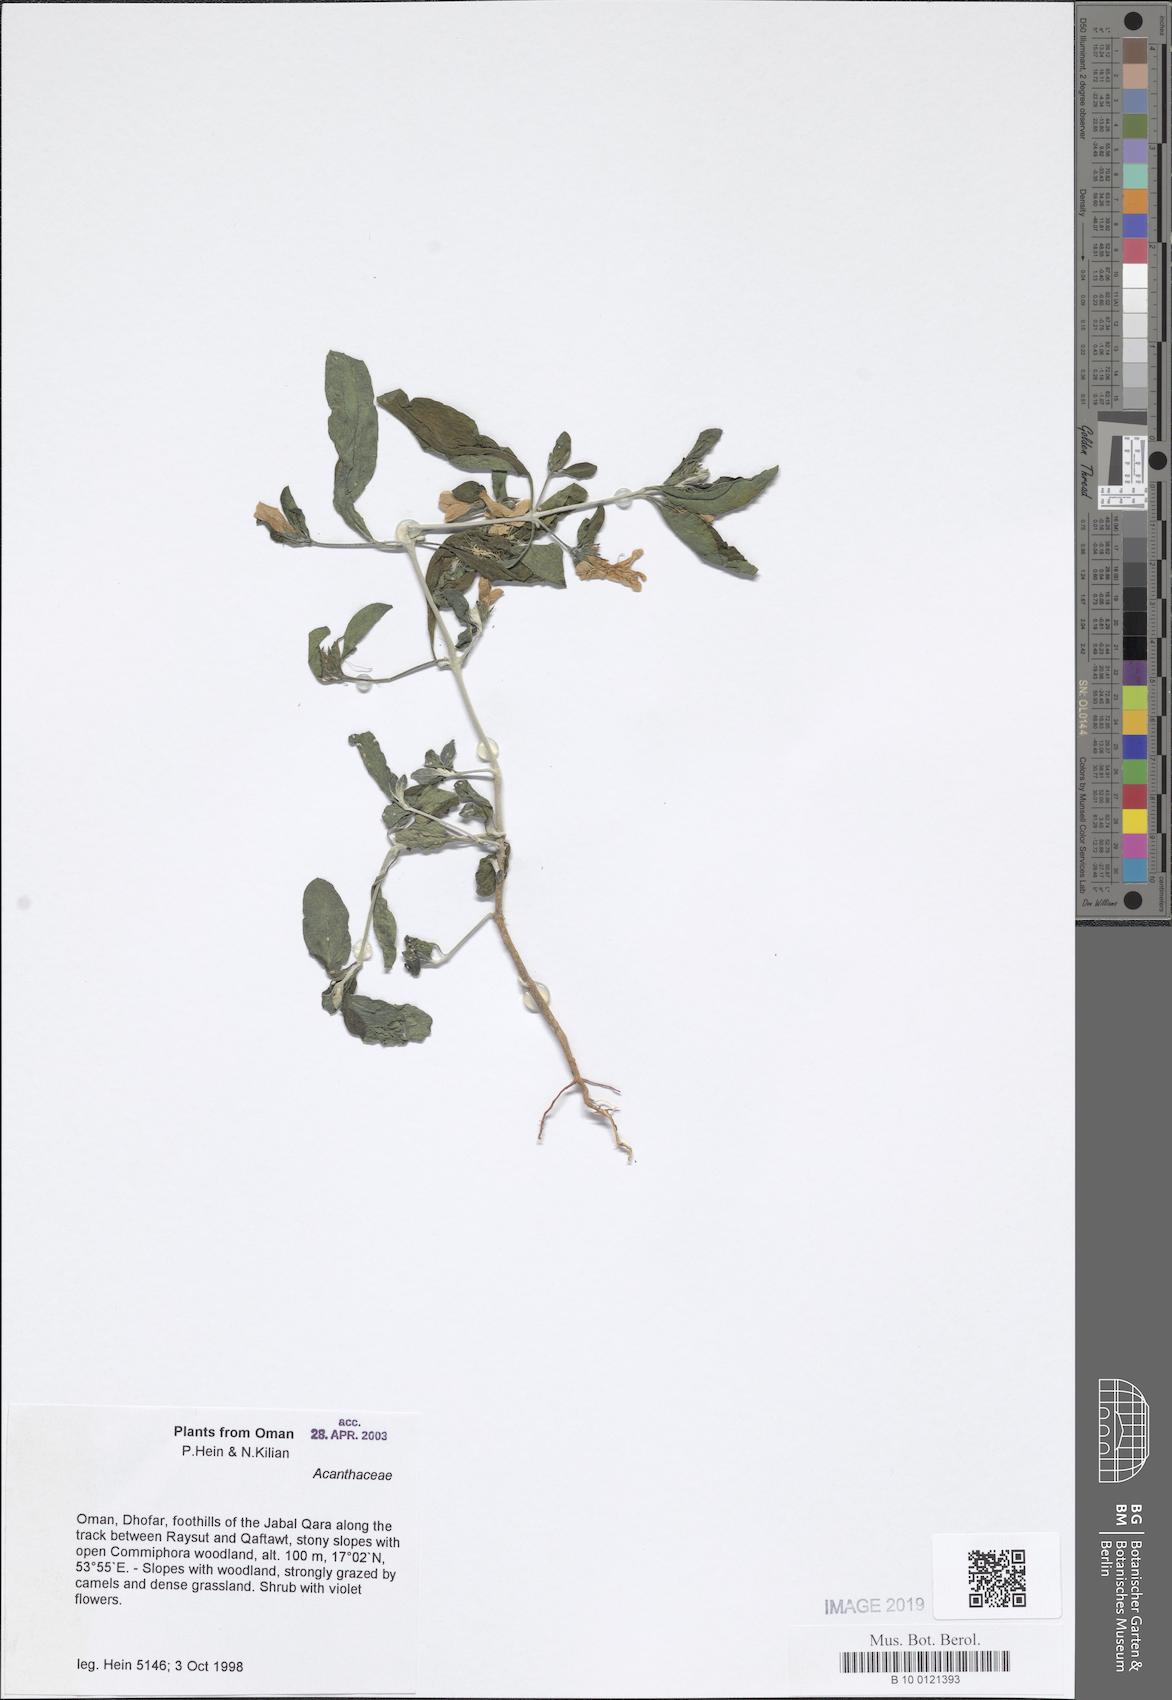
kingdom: Plantae
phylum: Tracheophyta
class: Magnoliopsida
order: Lamiales
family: Acanthaceae
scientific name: Acanthaceae
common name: Acanthaceae
